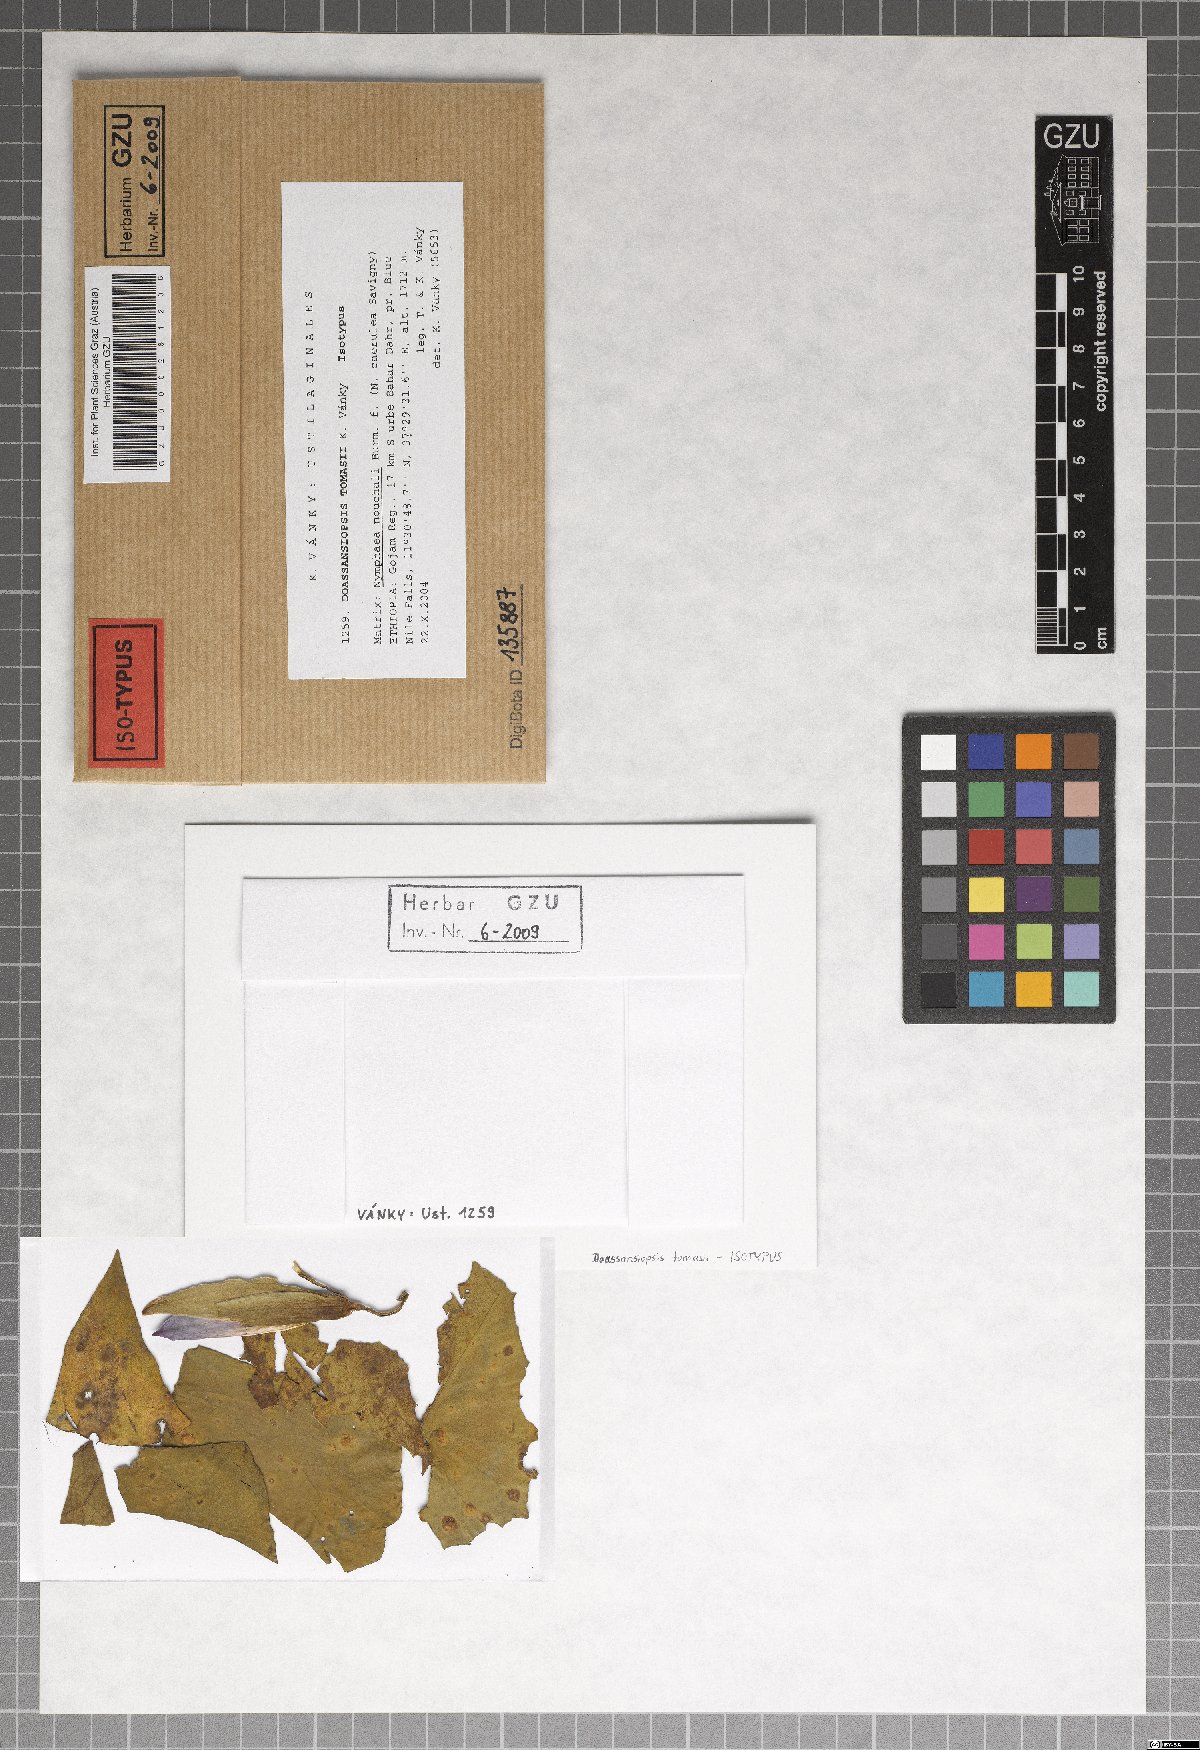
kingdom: Fungi
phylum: Basidiomycota
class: Ustilaginomycetes
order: Urocystidales
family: Doassansiopsidaceae
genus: Doassansiopsis
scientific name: Doassansiopsis tomasii
